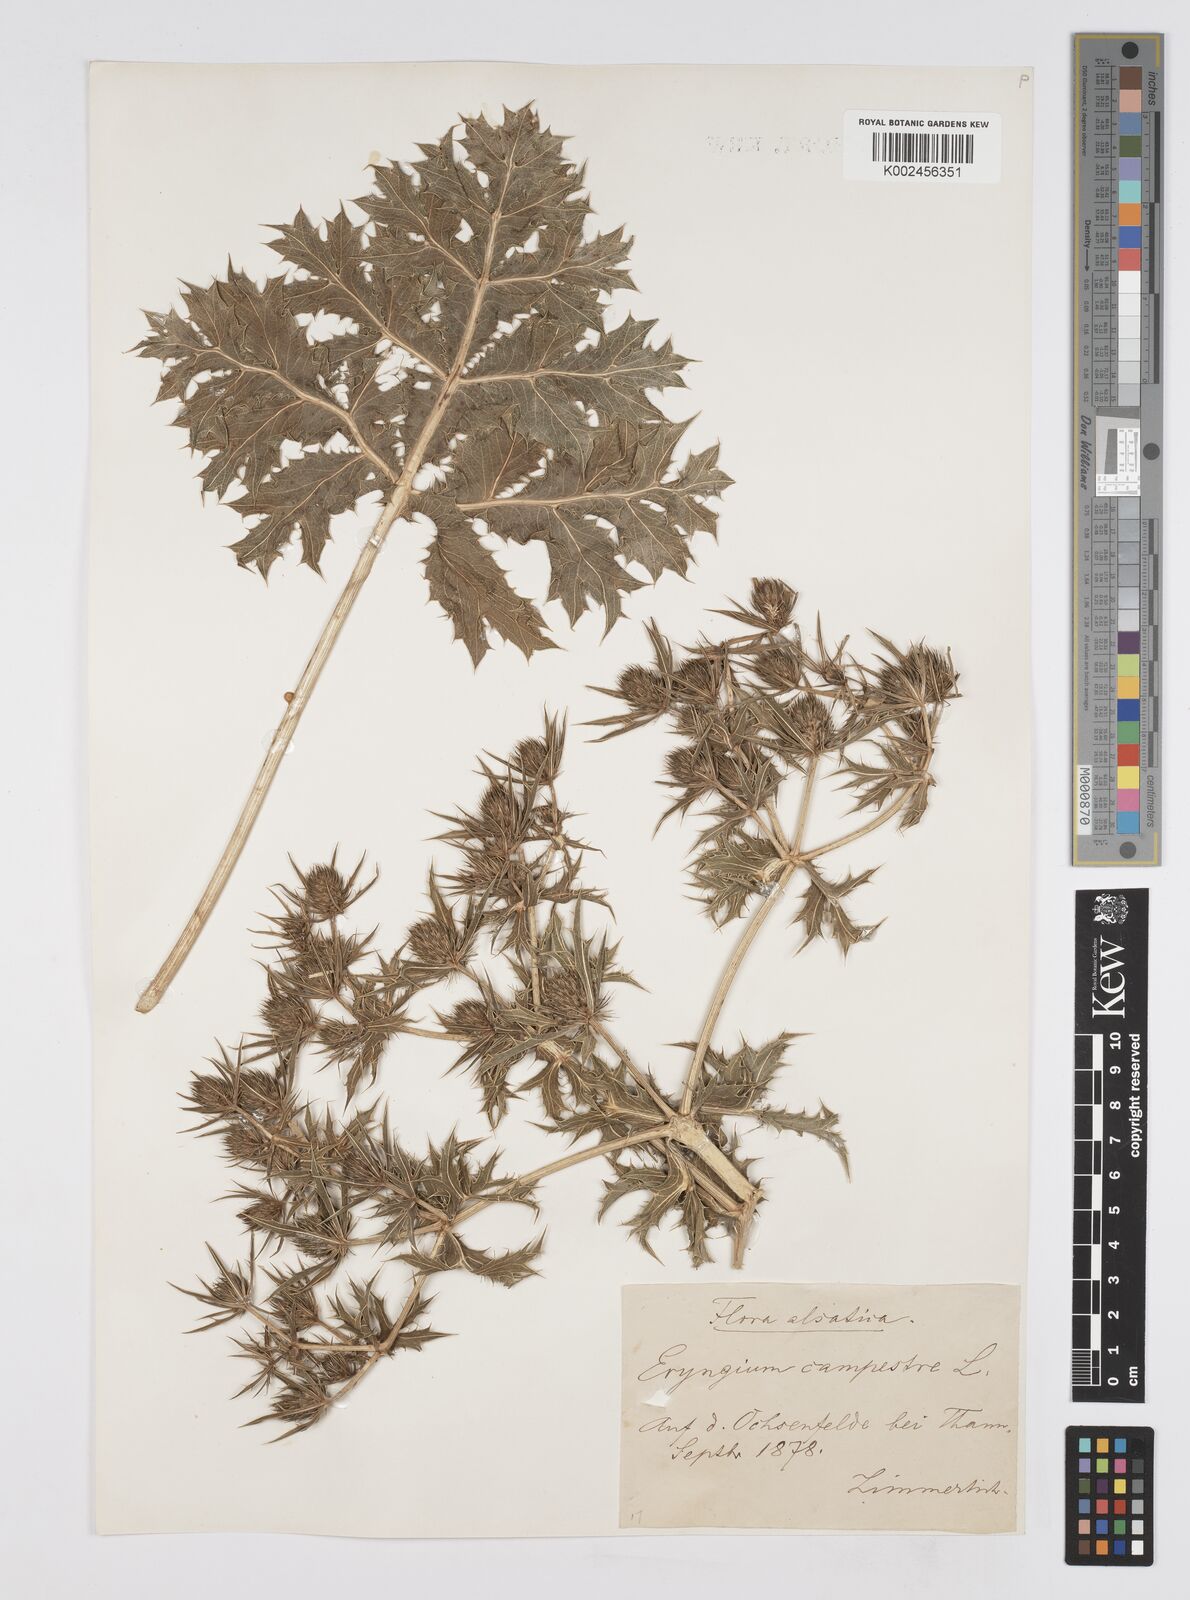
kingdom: Plantae
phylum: Tracheophyta
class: Magnoliopsida
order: Apiales
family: Apiaceae
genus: Eryngium
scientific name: Eryngium campestre
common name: Field eryngo
